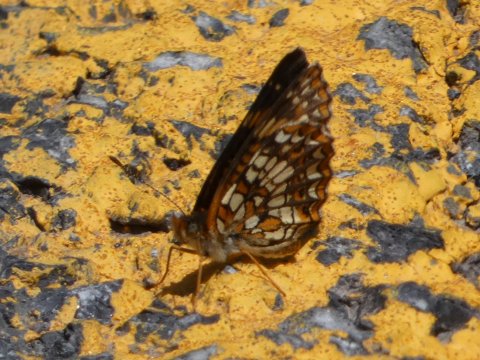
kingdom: Animalia
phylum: Arthropoda
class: Insecta
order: Lepidoptera
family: Nymphalidae
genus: Chlosyne
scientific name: Chlosyne harrisii
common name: Harris's Checkerspot
